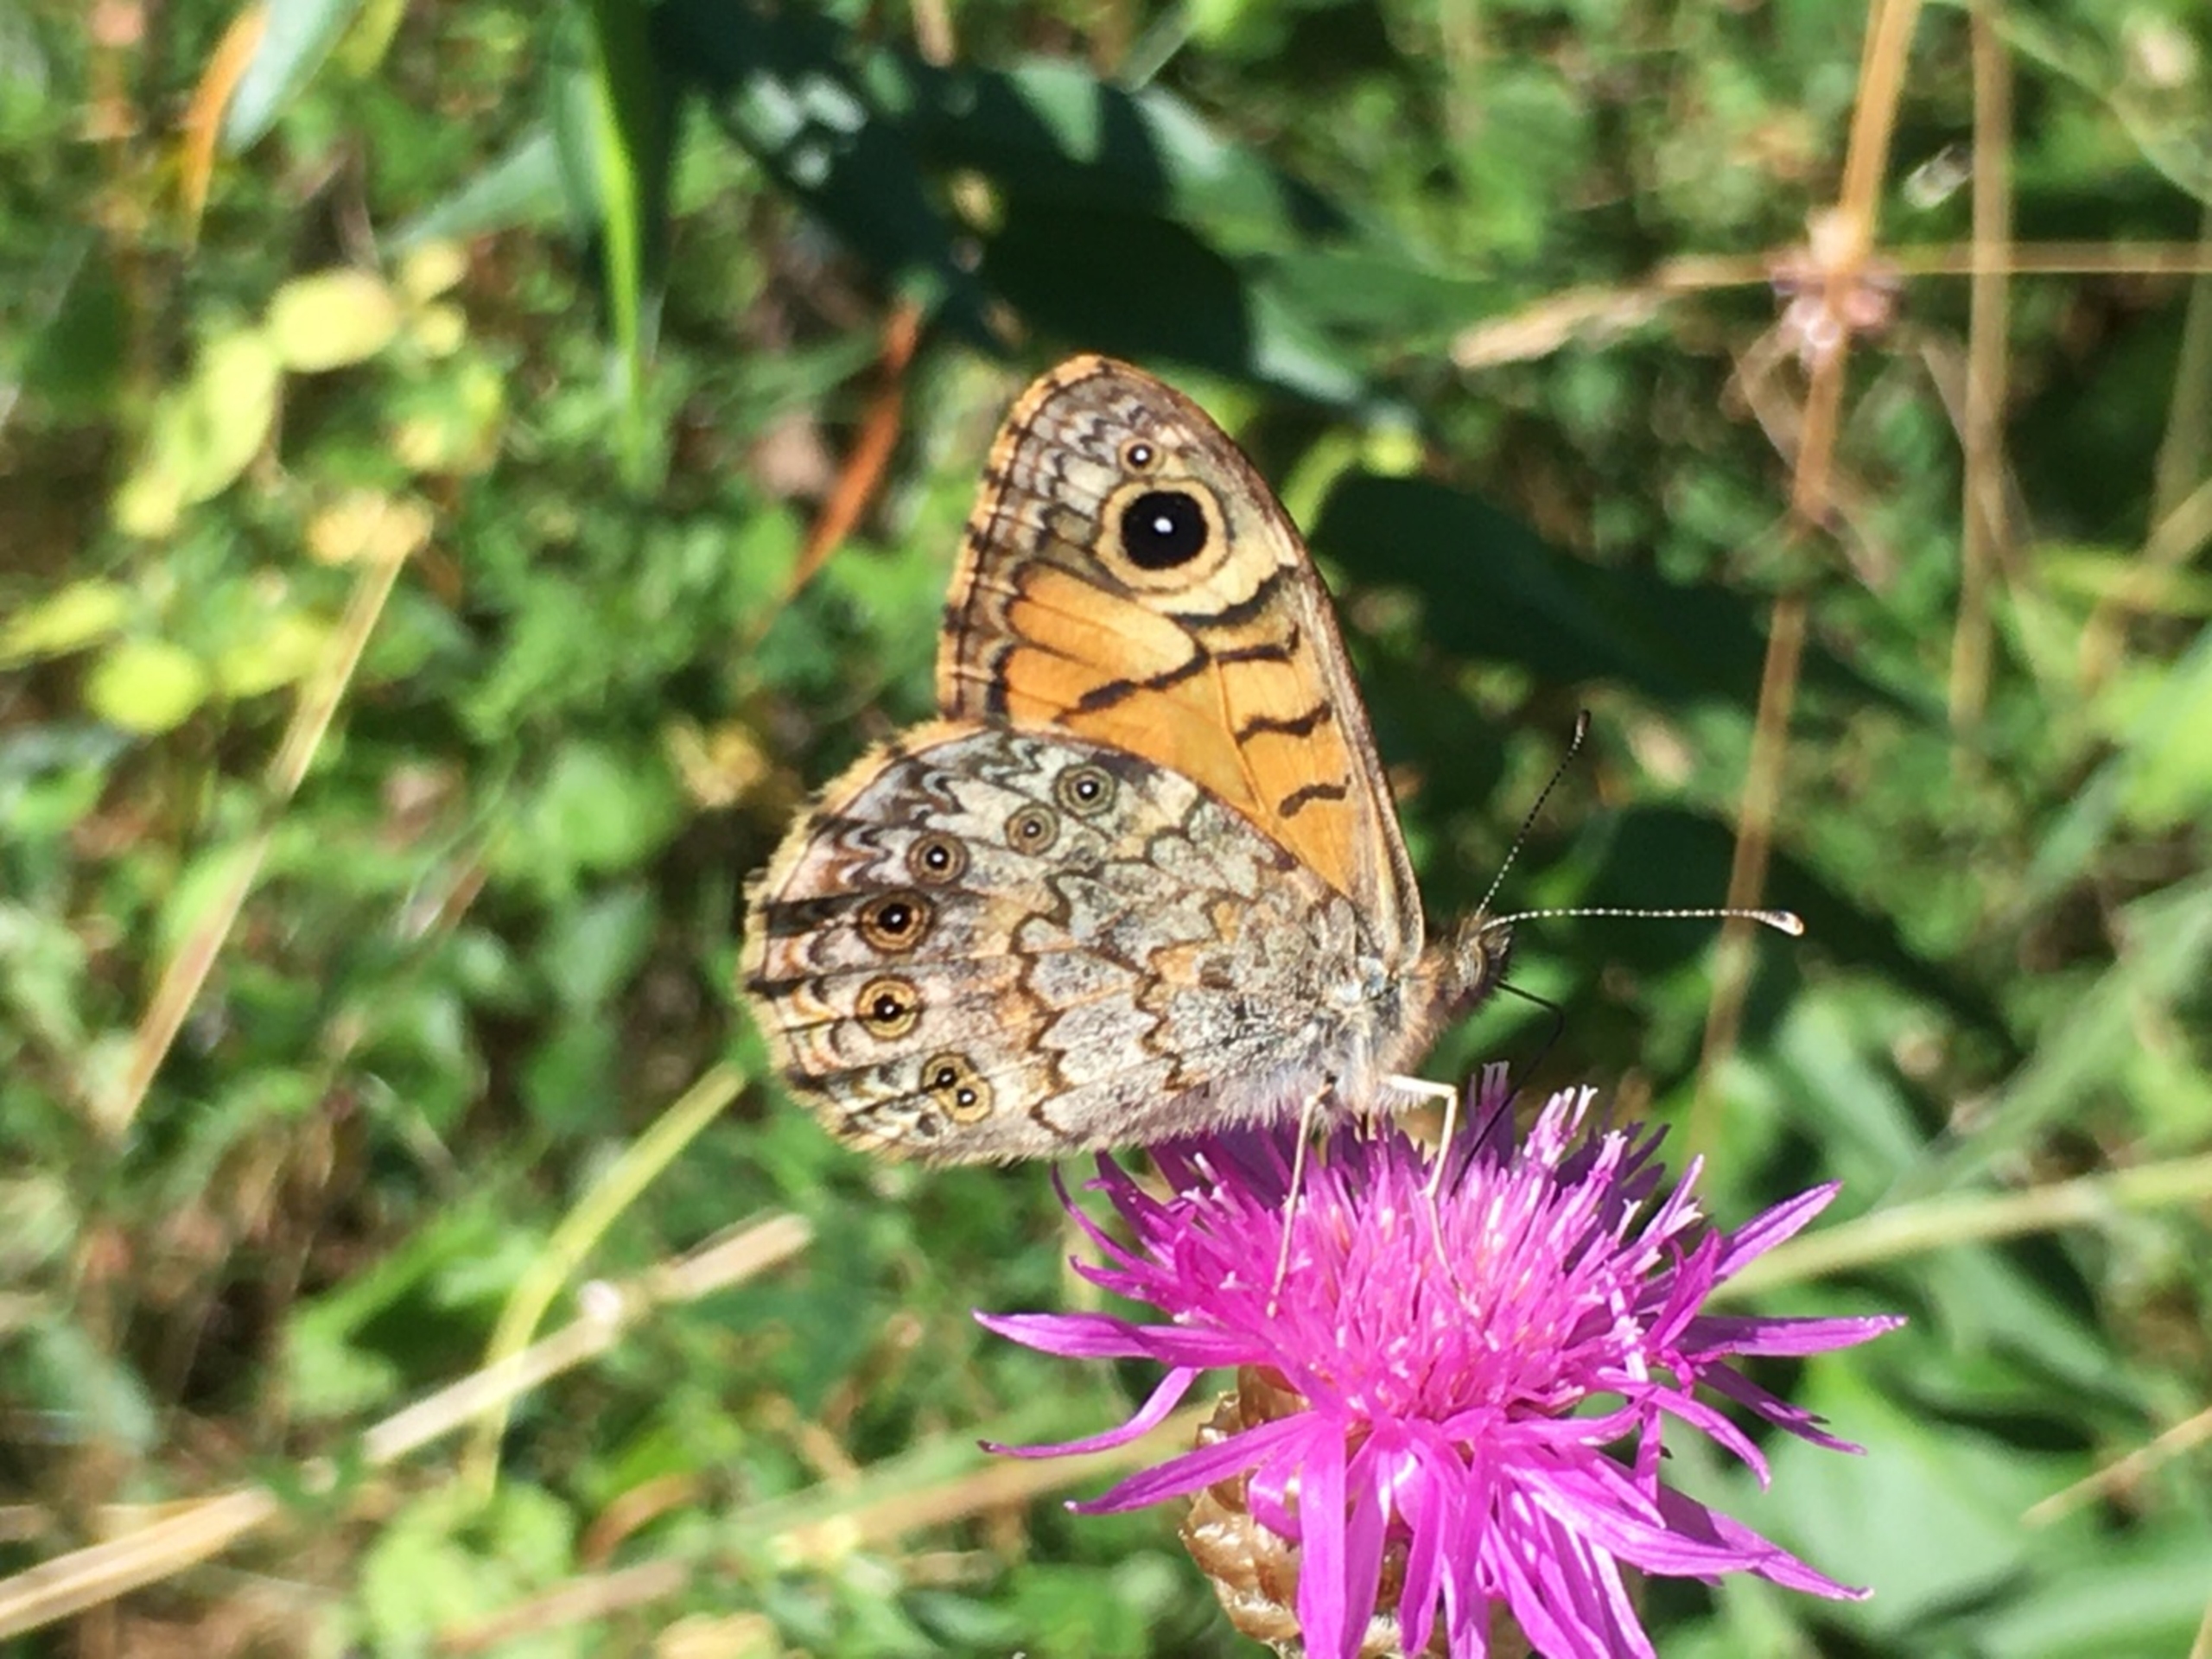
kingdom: Animalia
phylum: Arthropoda
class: Insecta
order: Lepidoptera
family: Nymphalidae
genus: Pararge
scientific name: Pararge Lasiommata megera
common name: Vejrandøje
